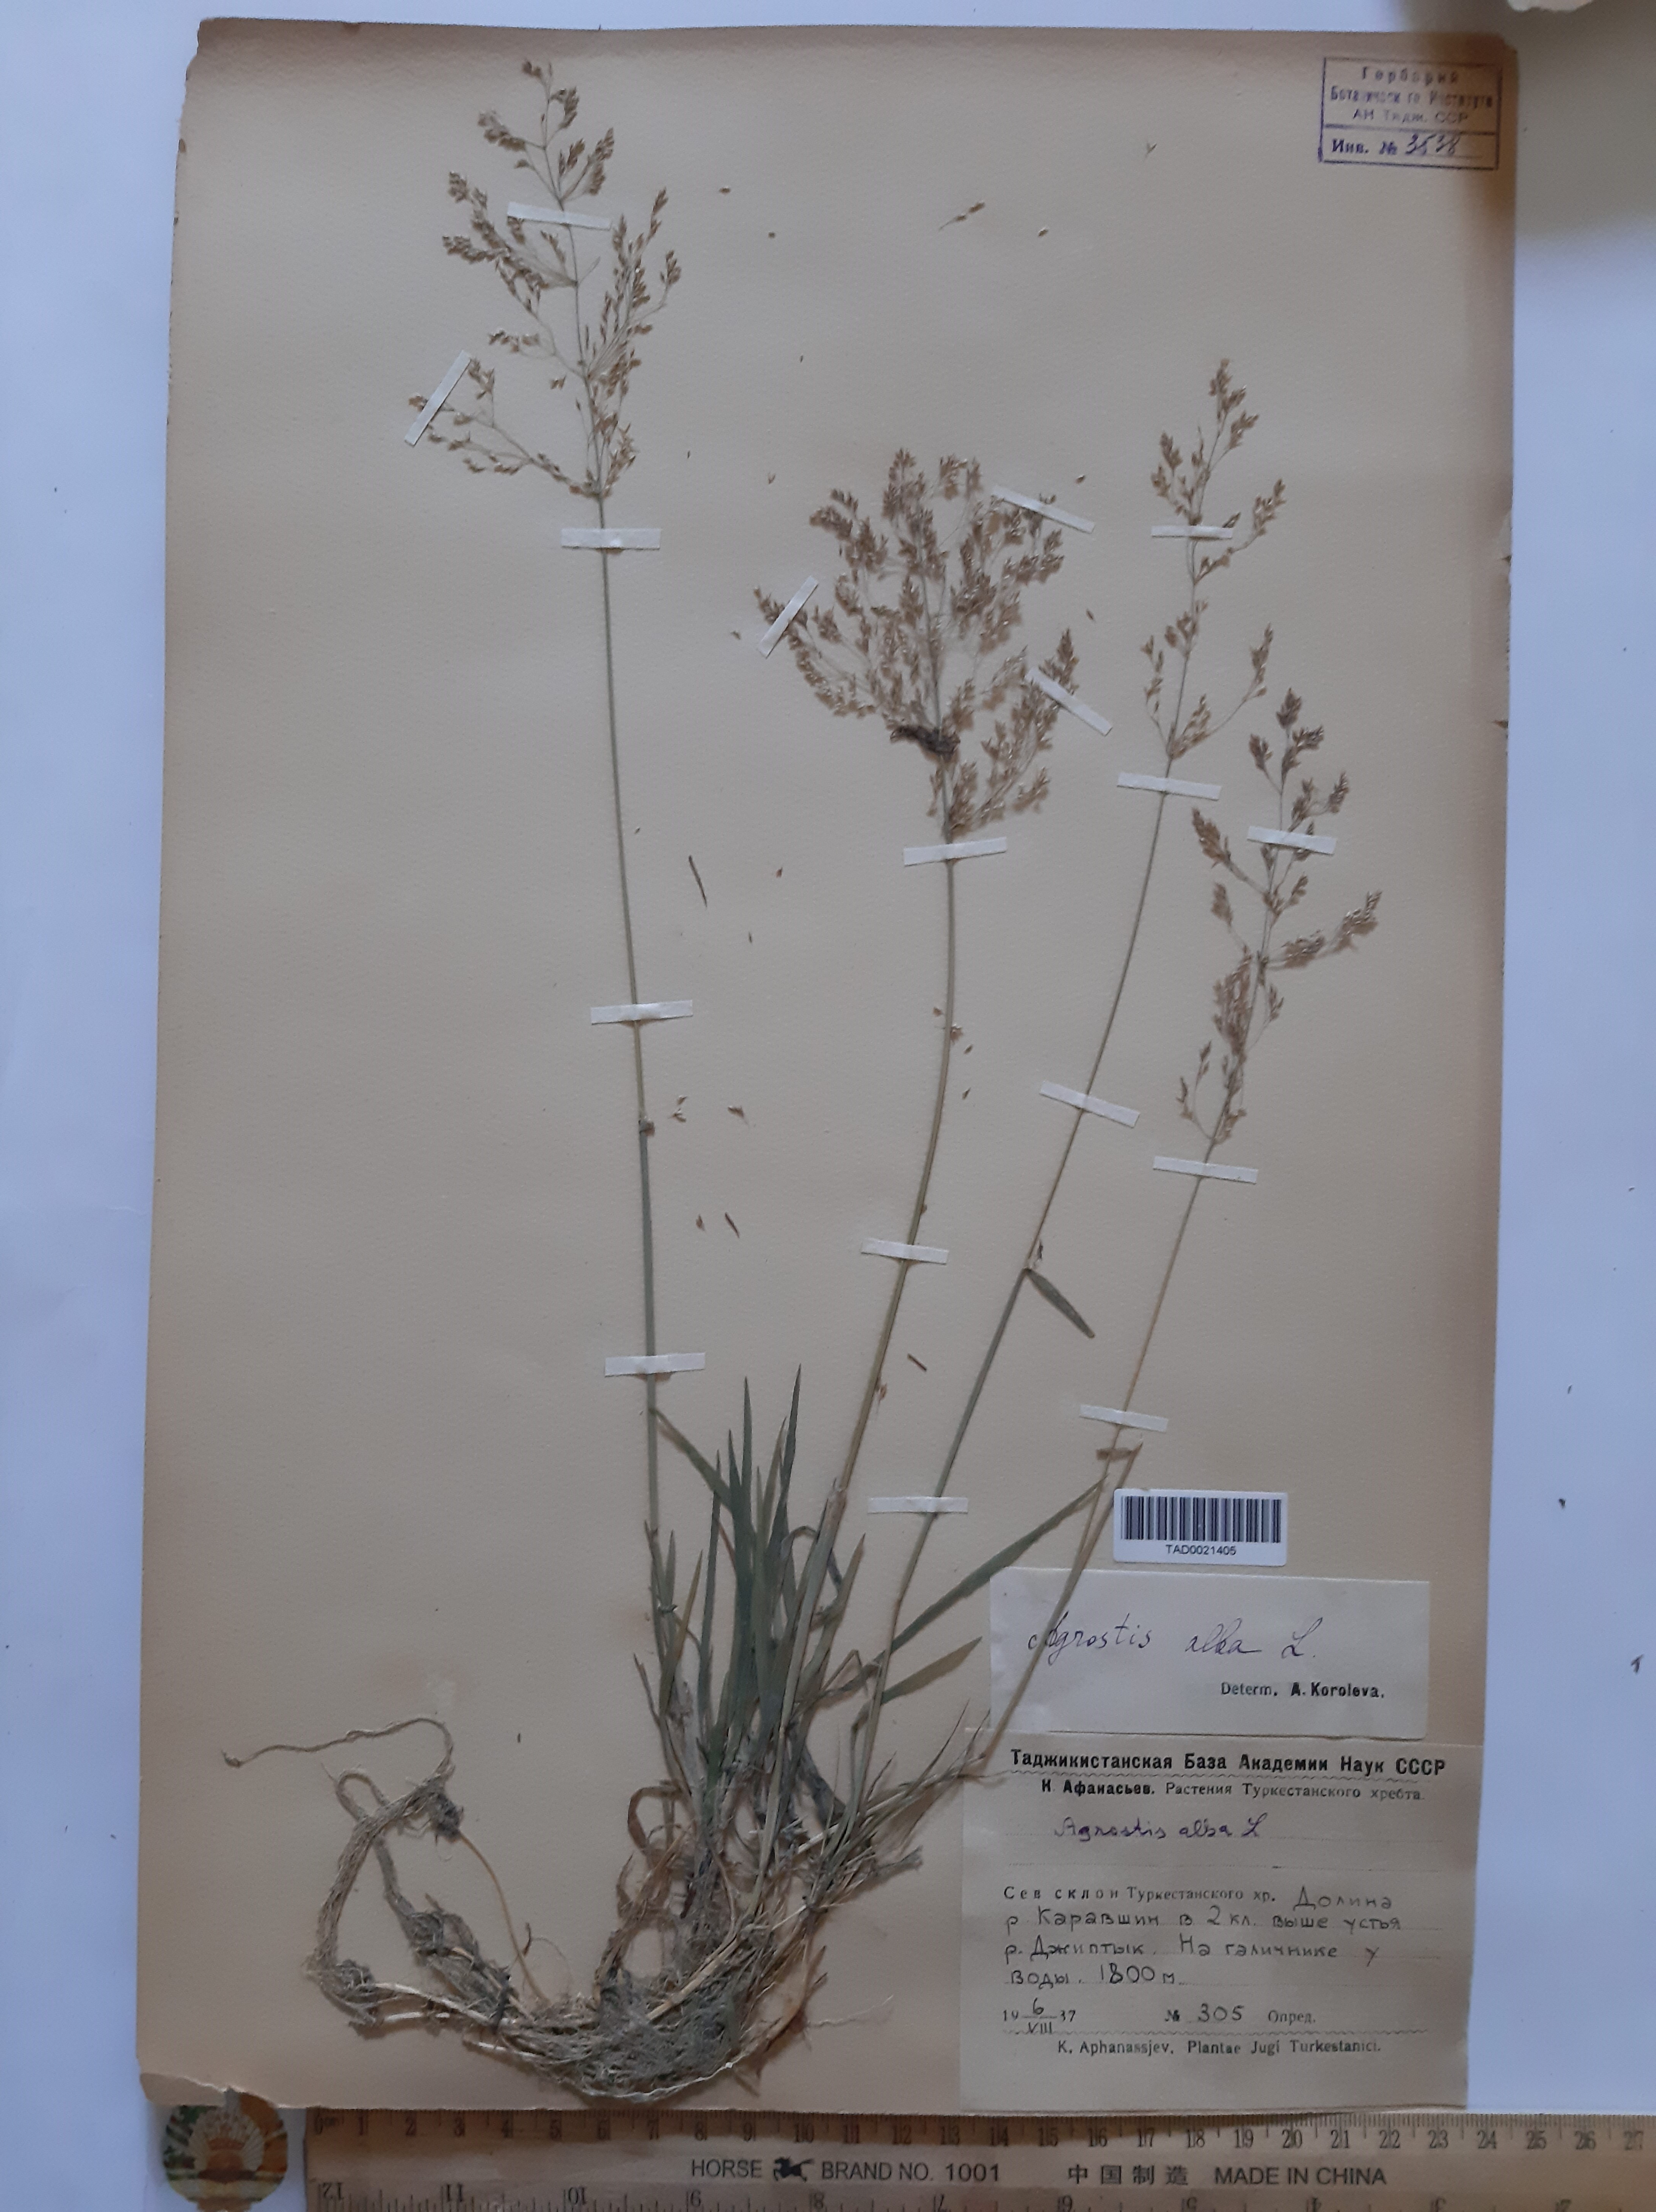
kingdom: Plantae
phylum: Tracheophyta
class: Liliopsida
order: Poales
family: Poaceae
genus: Poa
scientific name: Poa nemoralis
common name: Wood bluegrass
